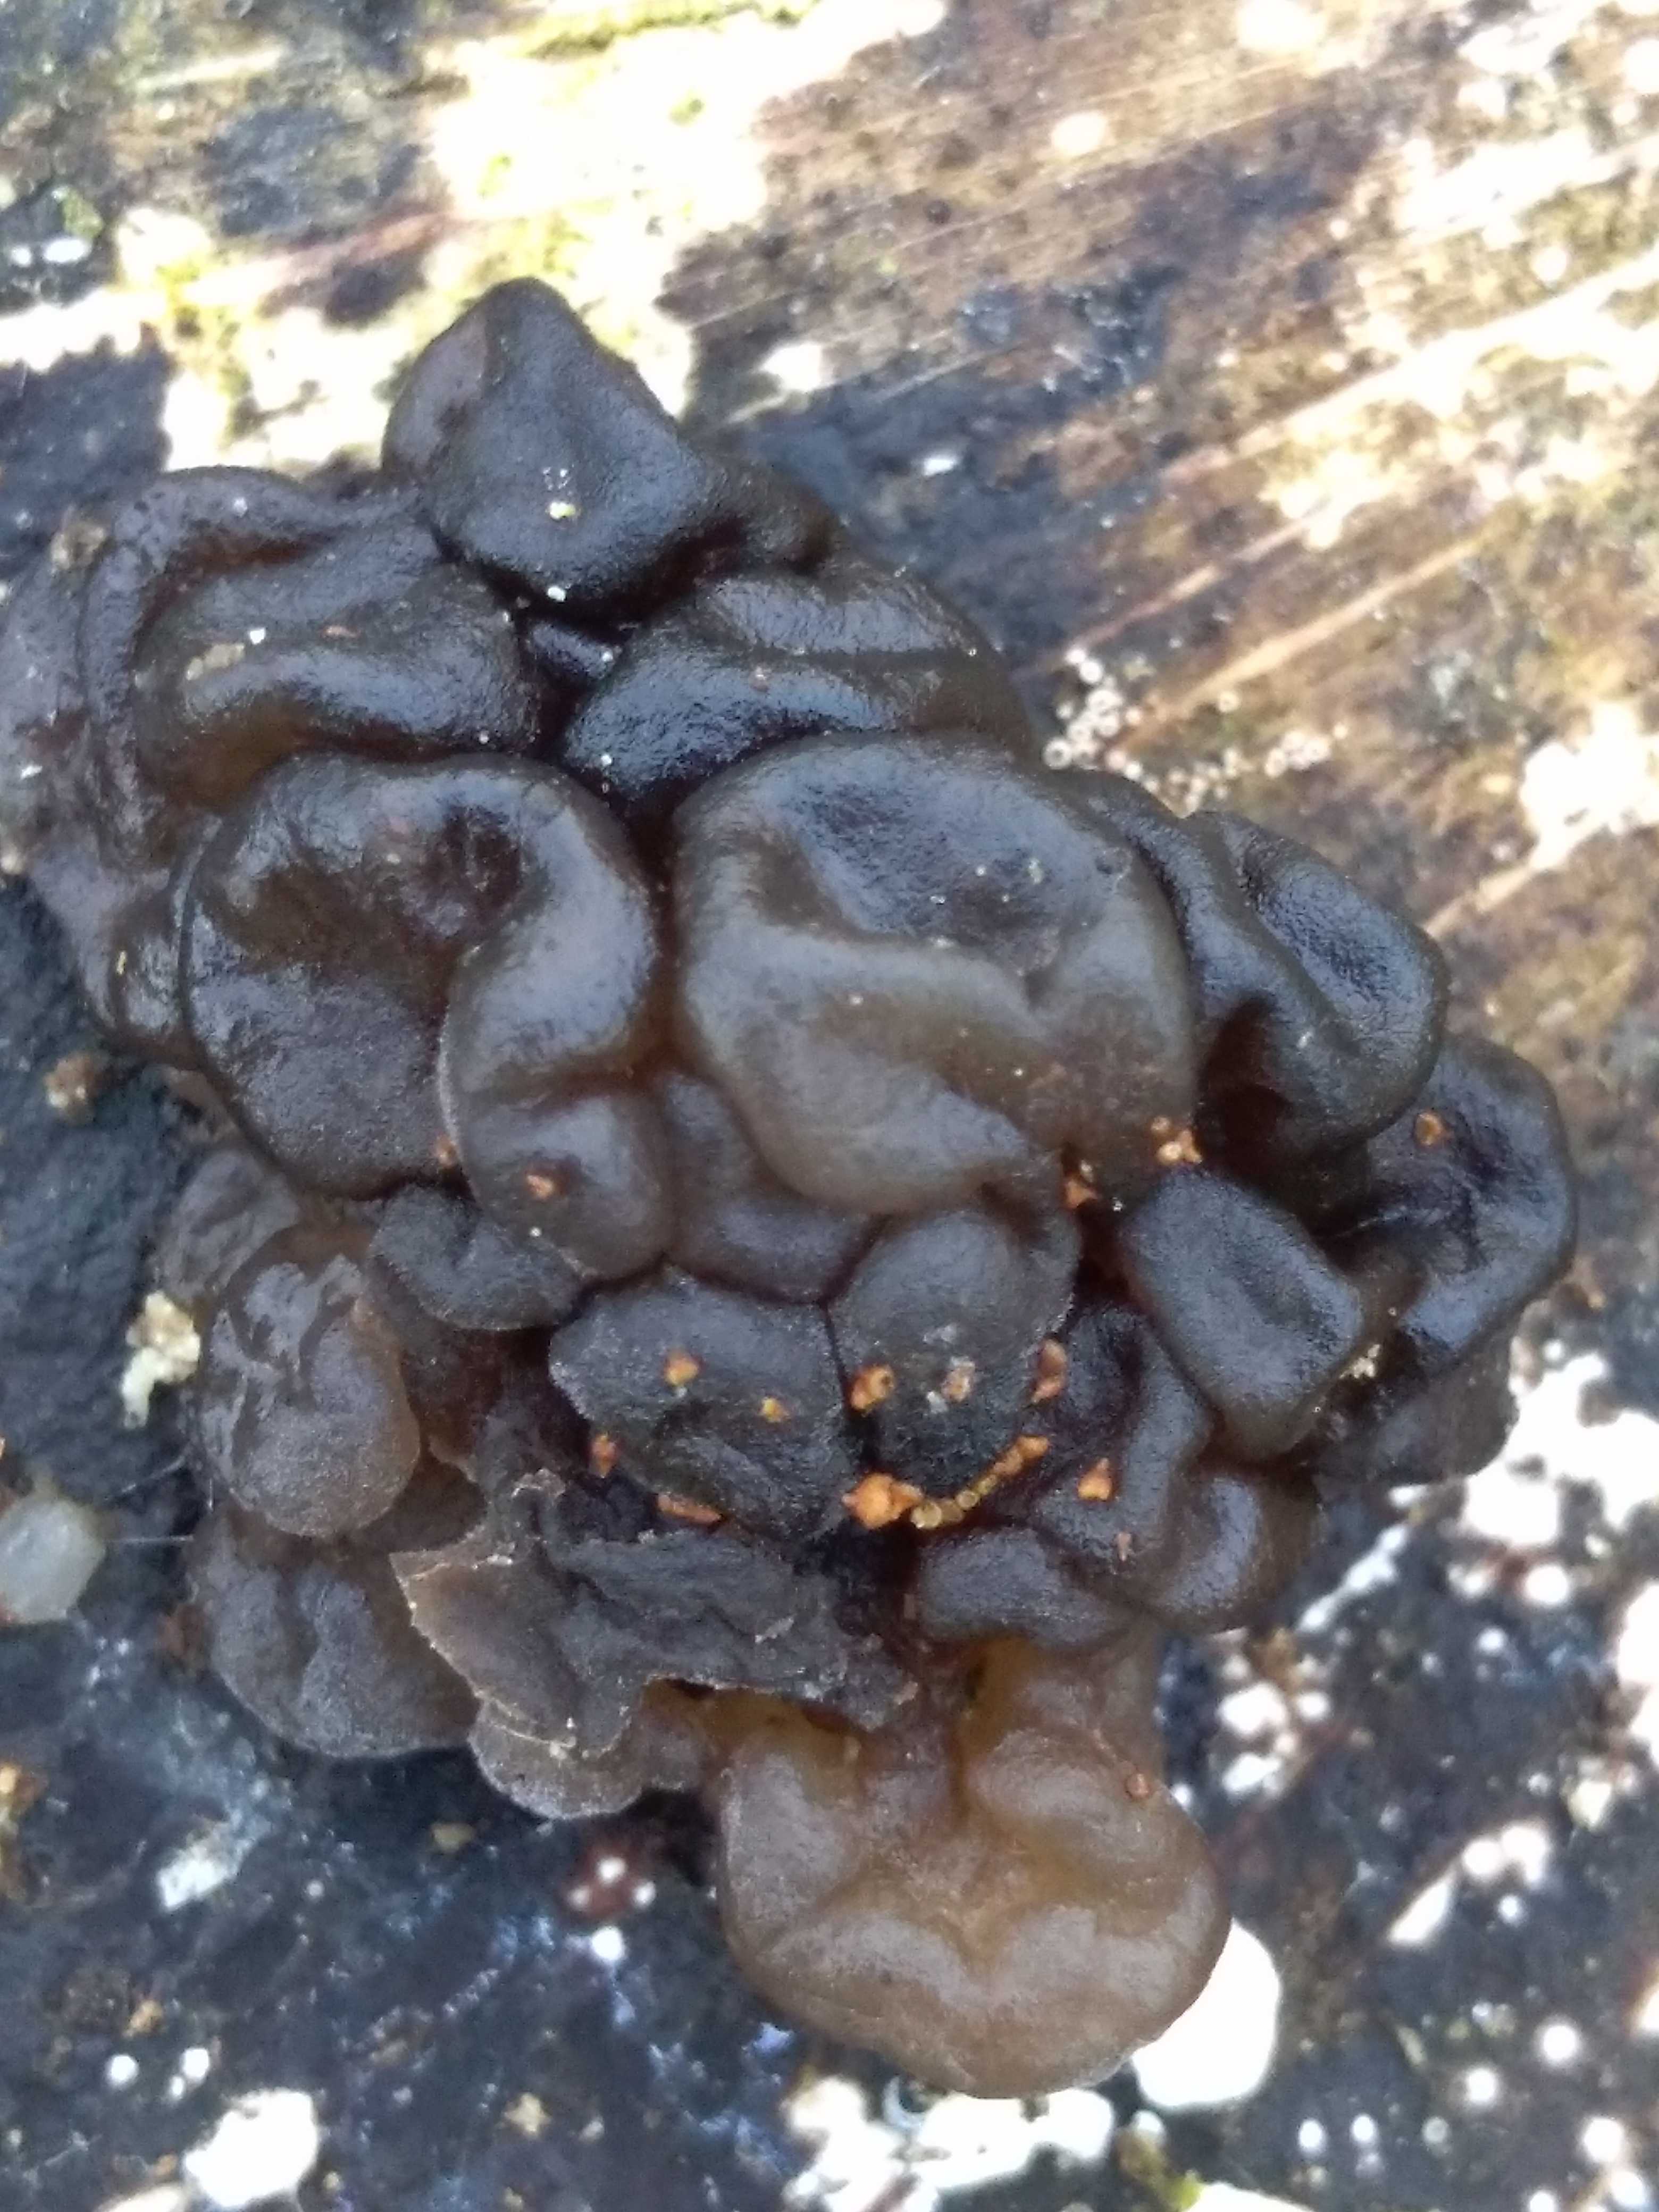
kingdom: Fungi
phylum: Basidiomycota
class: Agaricomycetes
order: Auriculariales
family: Auriculariaceae
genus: Exidia
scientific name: Exidia nigricans
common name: almindelig bævretop
